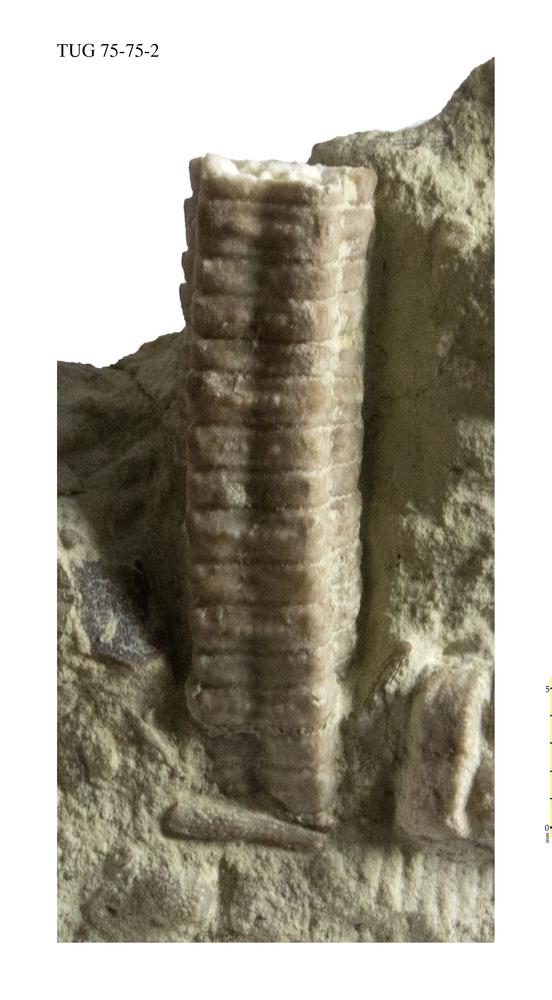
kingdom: Animalia
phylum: Echinodermata
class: Crinoidea
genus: Baltocrinus
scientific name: Baltocrinus
